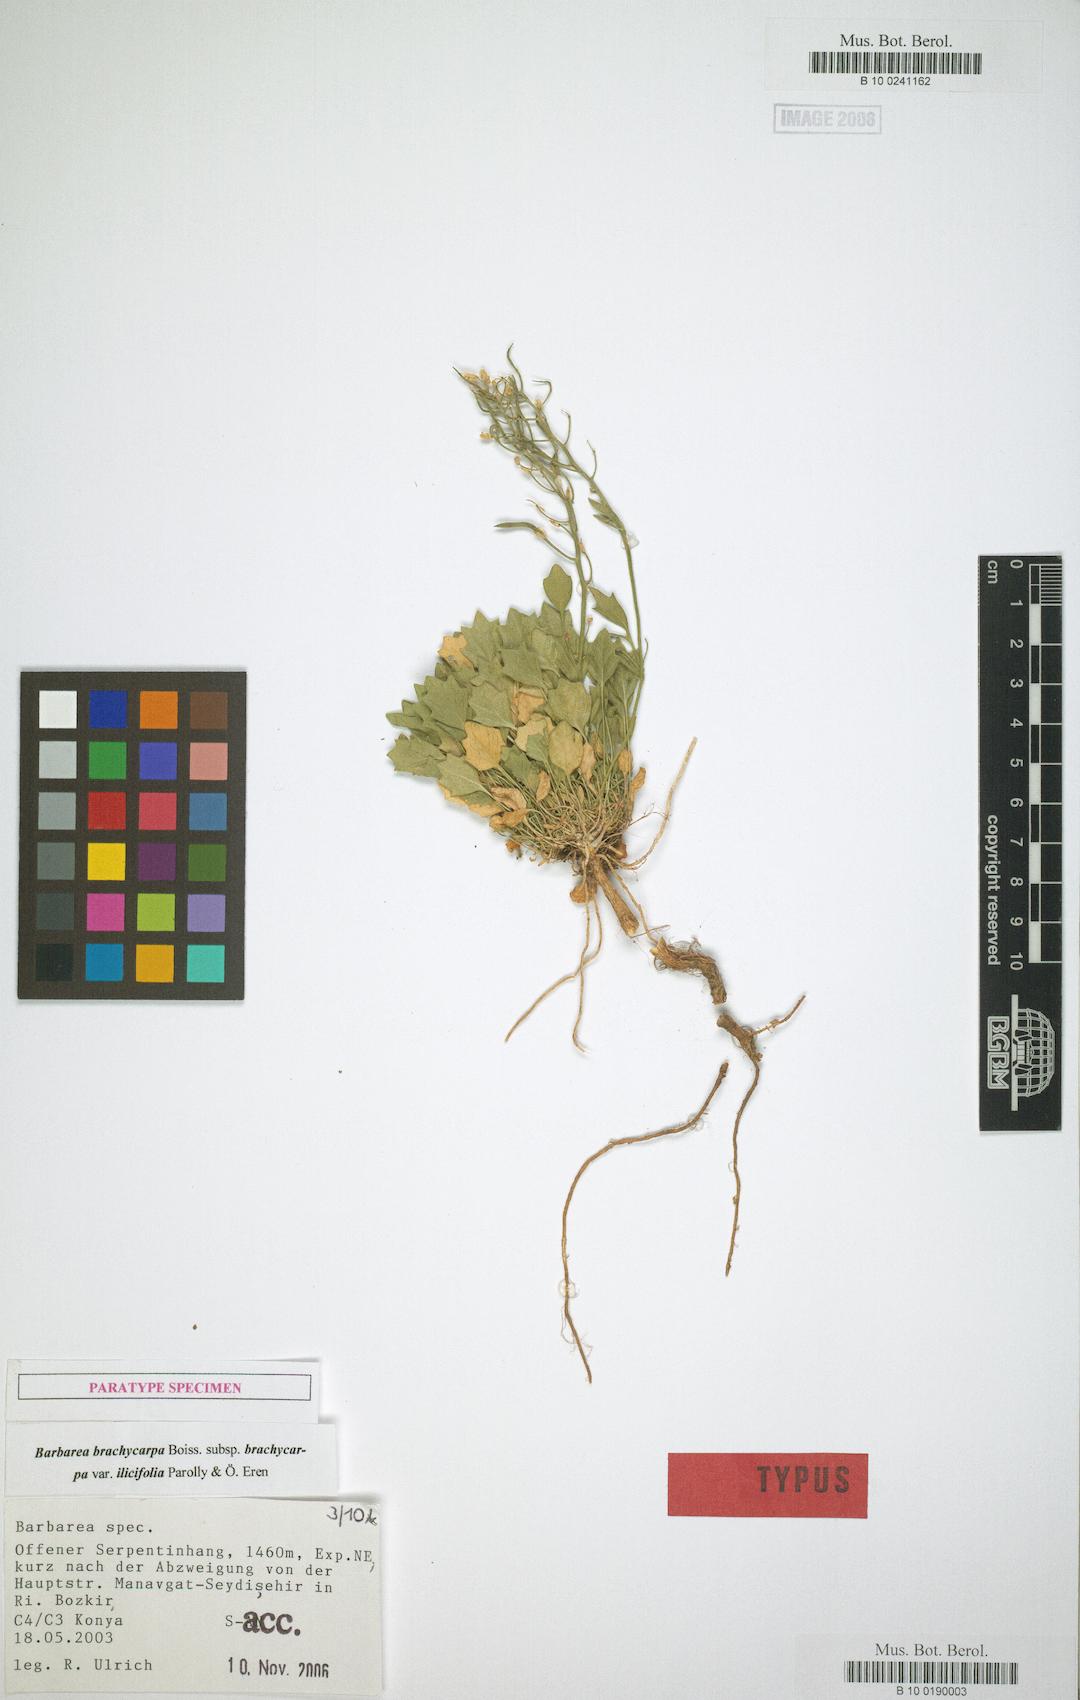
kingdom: Plantae
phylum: Tracheophyta
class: Magnoliopsida
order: Brassicales
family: Brassicaceae
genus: Barbarea
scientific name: Barbarea brachycarpa
